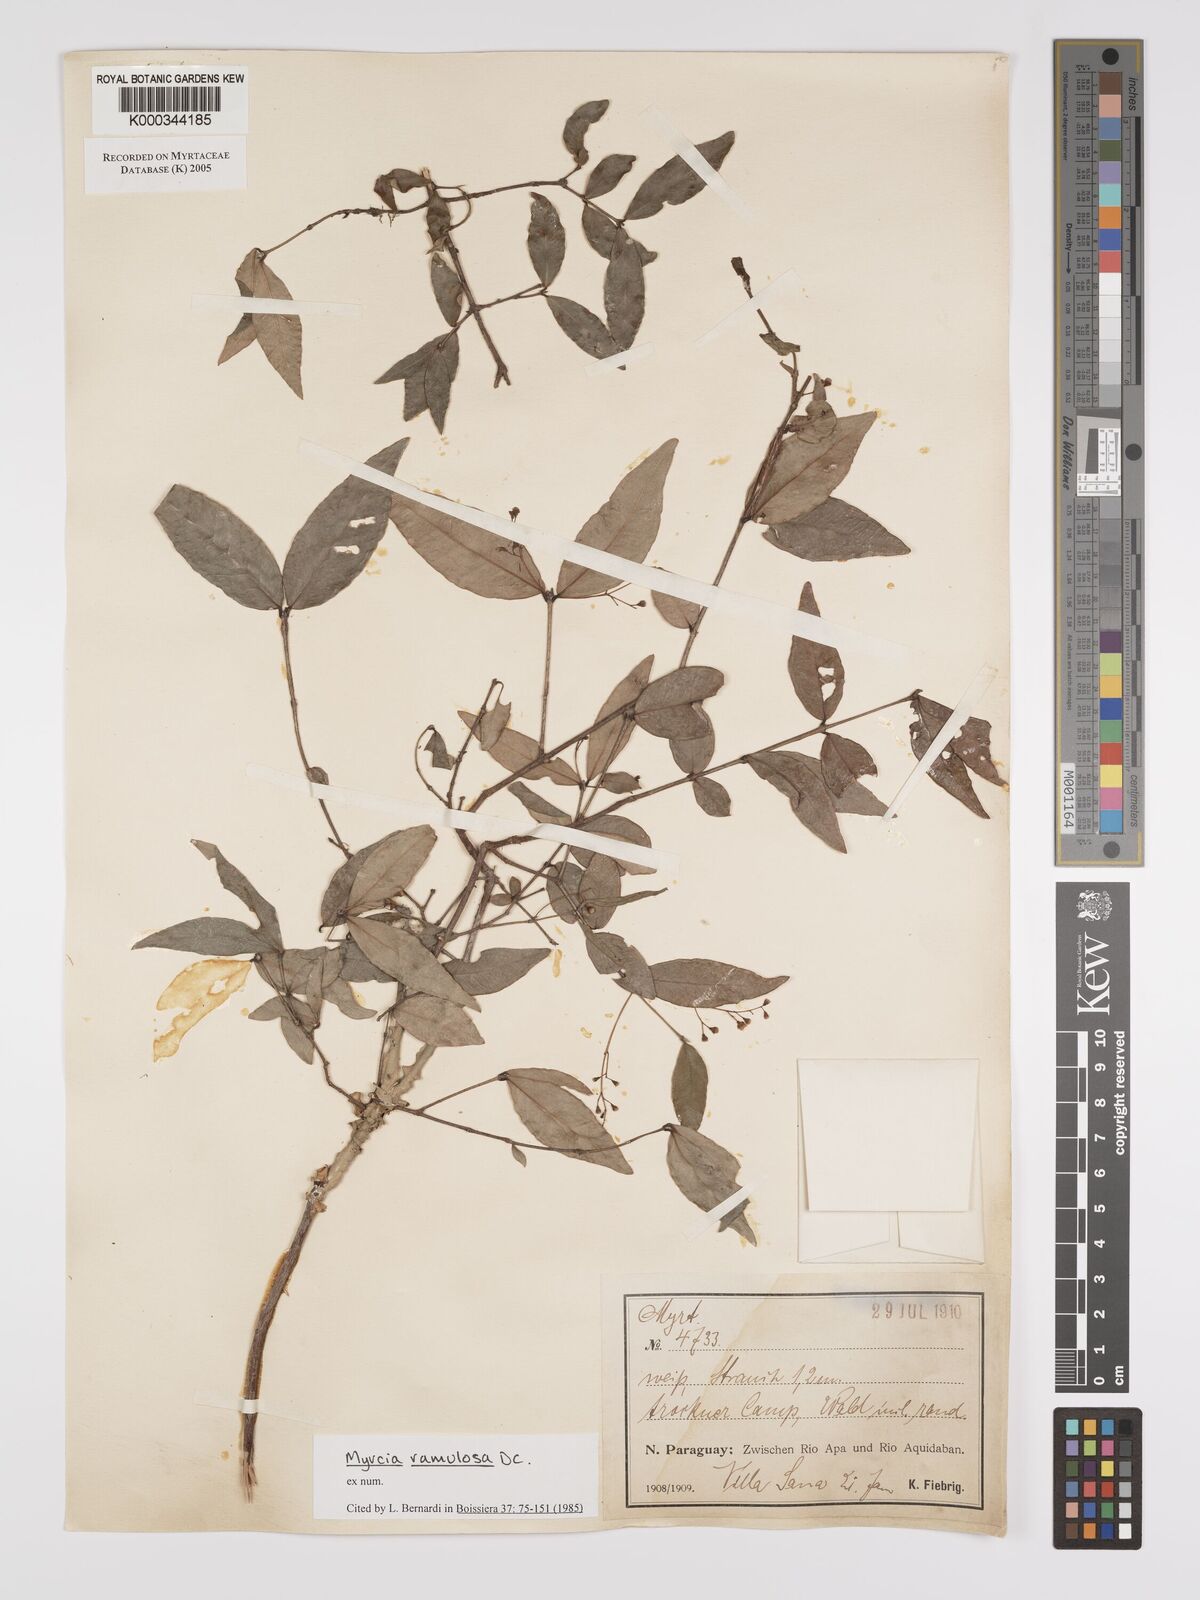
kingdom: Plantae
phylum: Tracheophyta
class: Magnoliopsida
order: Myrtales
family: Myrtaceae
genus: Myrcia
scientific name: Myrcia selloi
